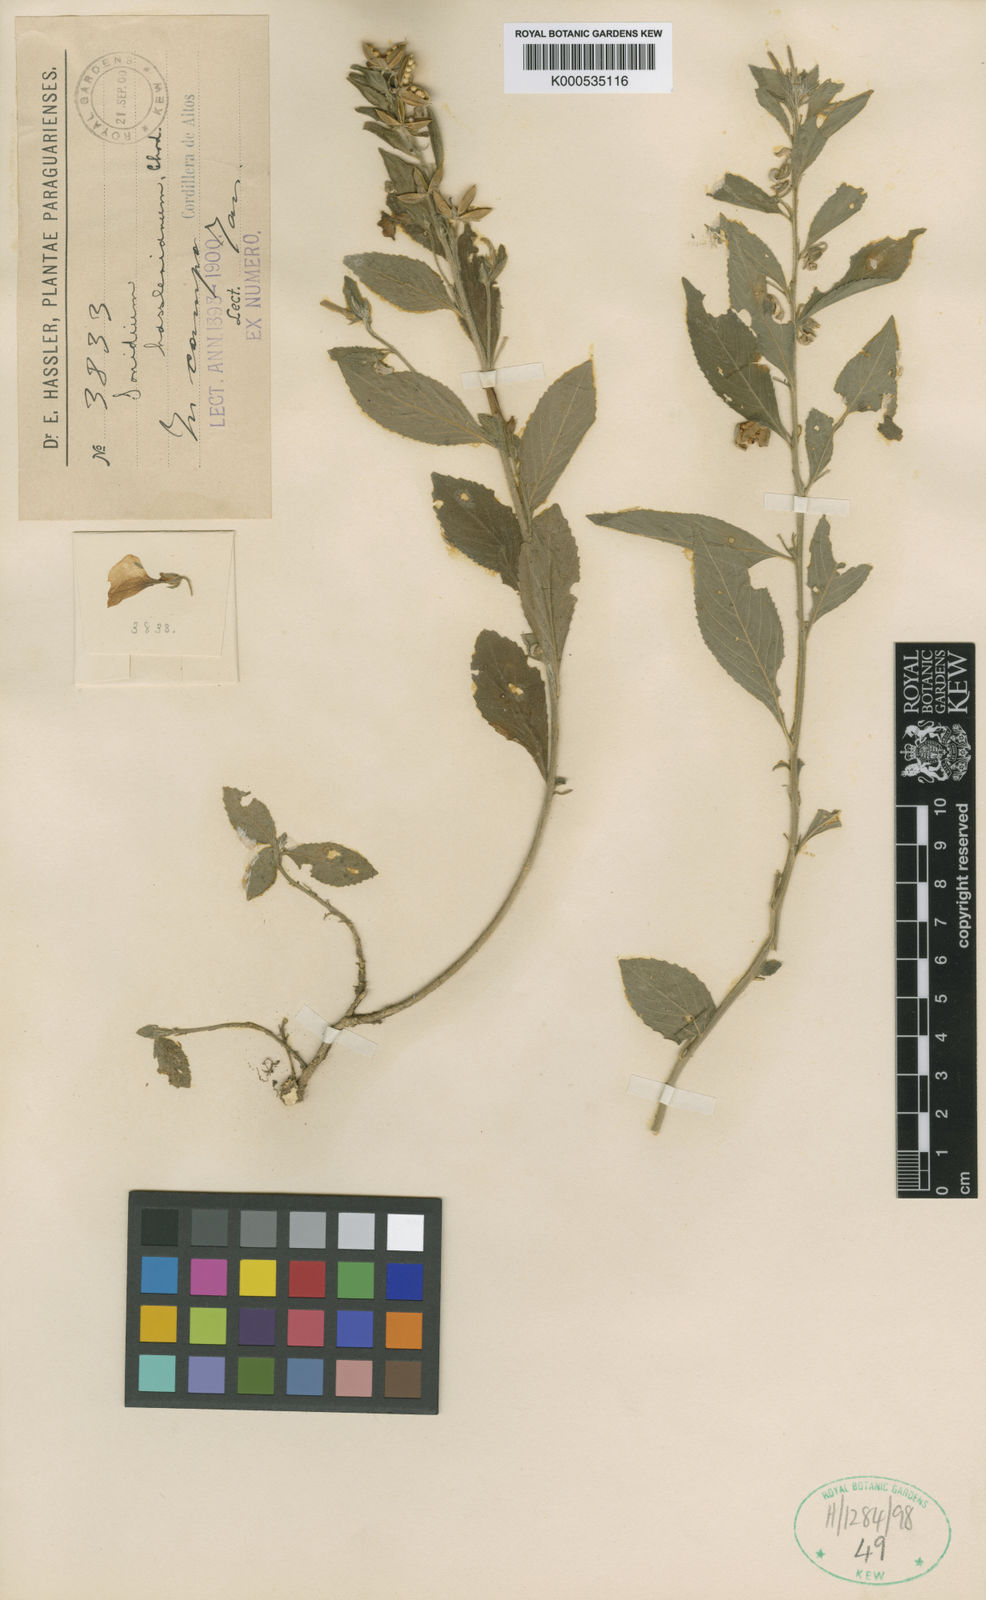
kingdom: Plantae
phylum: Tracheophyta
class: Magnoliopsida
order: Malpighiales
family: Violaceae
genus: Pombalia
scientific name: Pombalia hassleriana
